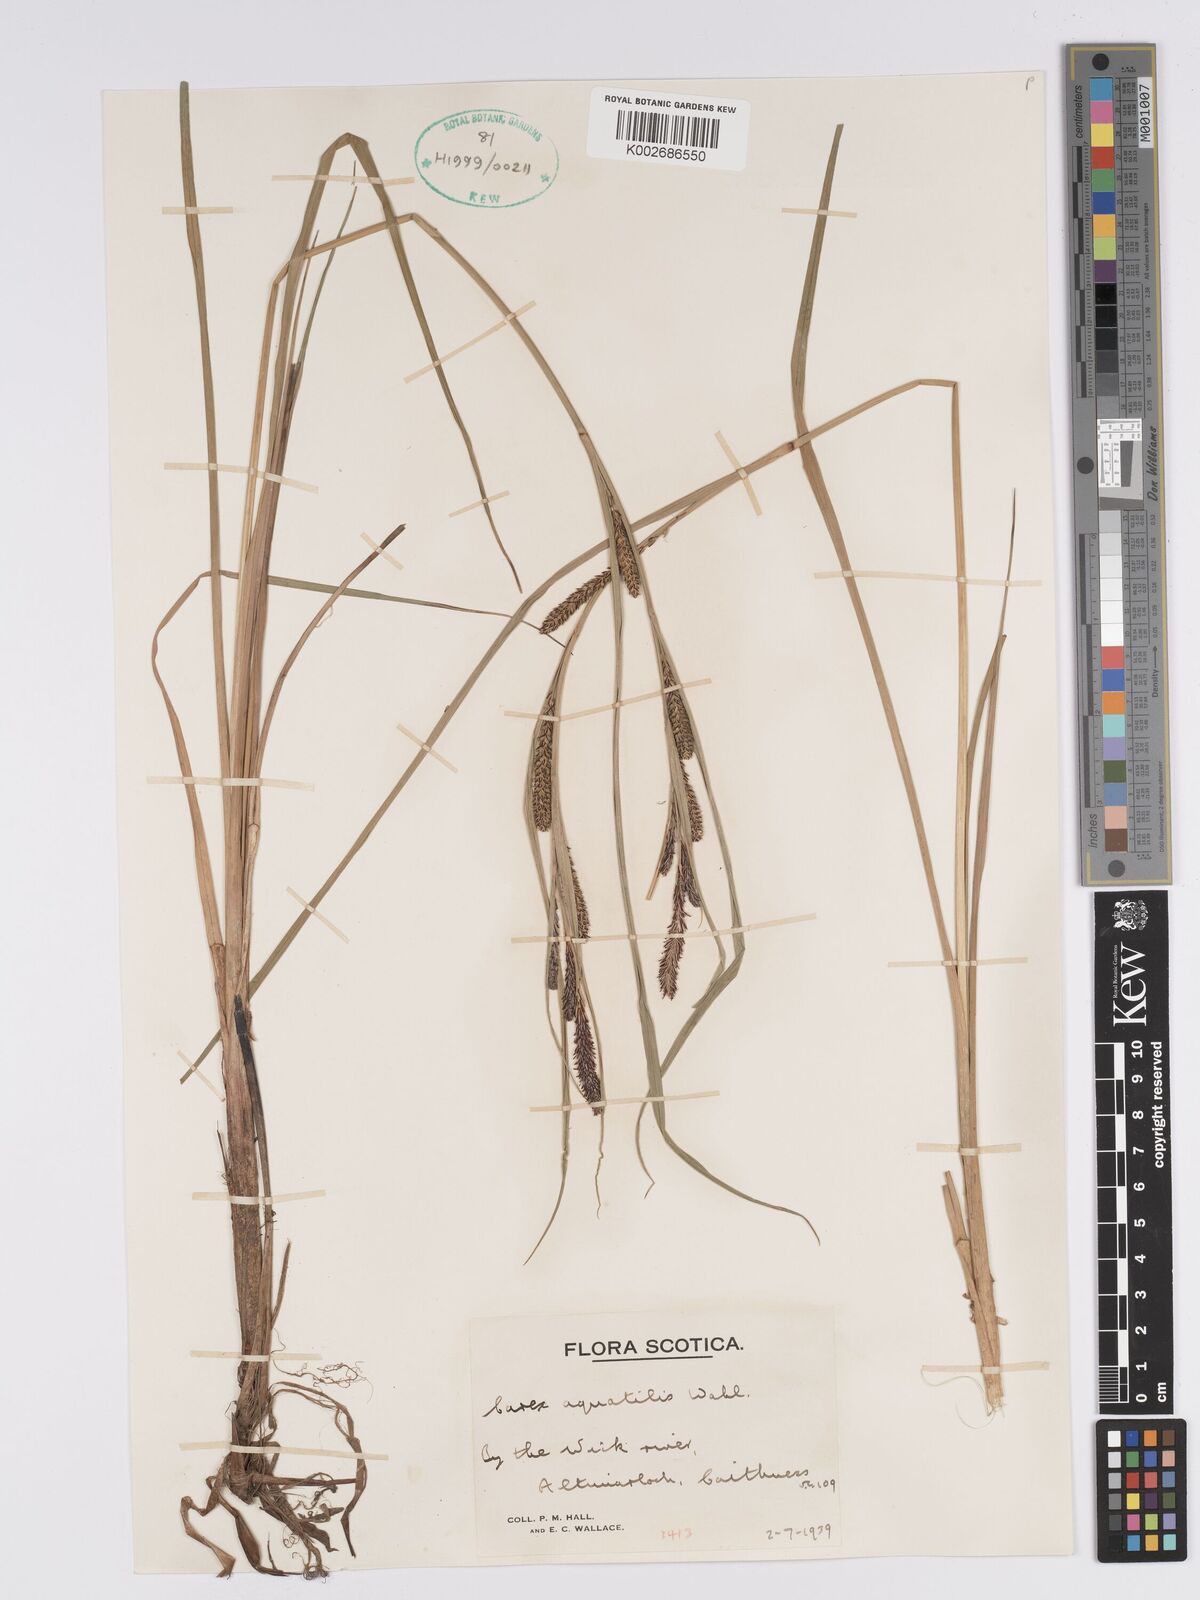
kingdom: Plantae
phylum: Tracheophyta
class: Liliopsida
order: Poales
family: Cyperaceae
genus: Carex
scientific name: Carex aquatilis
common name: Water sedge
